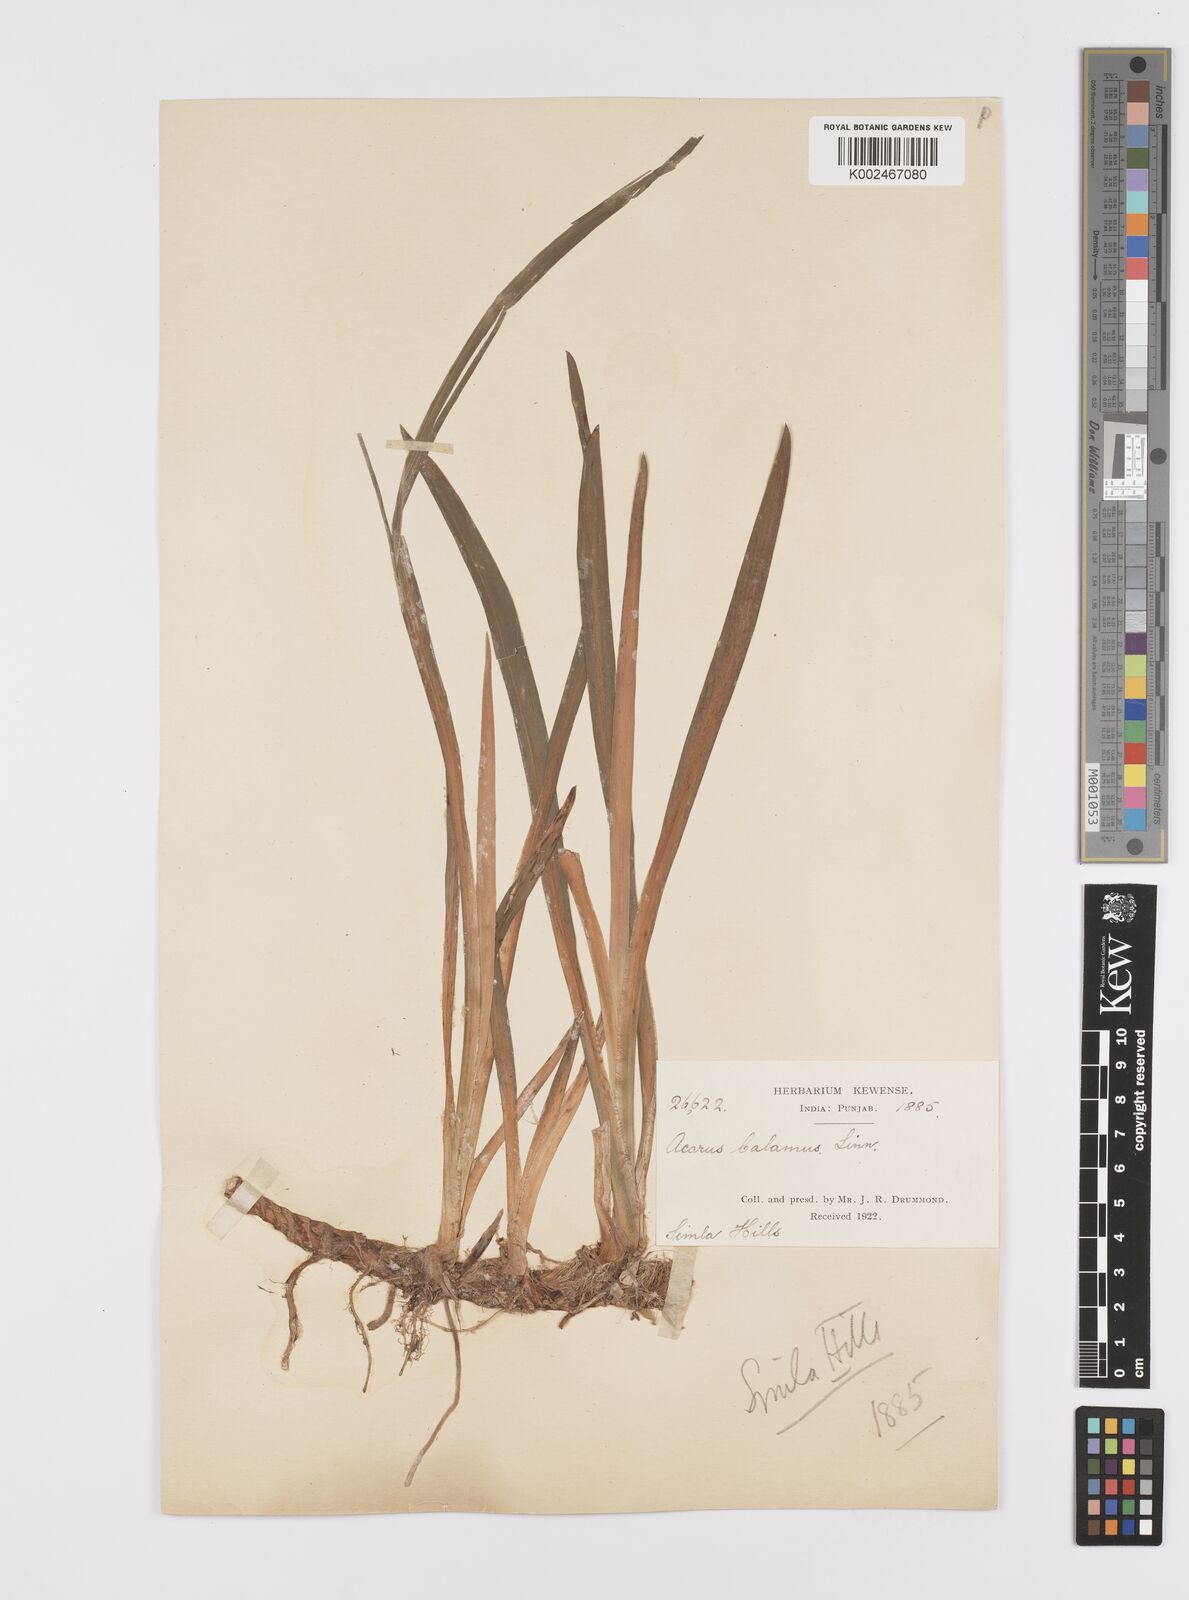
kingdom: Plantae
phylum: Tracheophyta
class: Liliopsida
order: Acorales
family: Acoraceae
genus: Acorus
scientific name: Acorus calamus
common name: Sweet-flag
